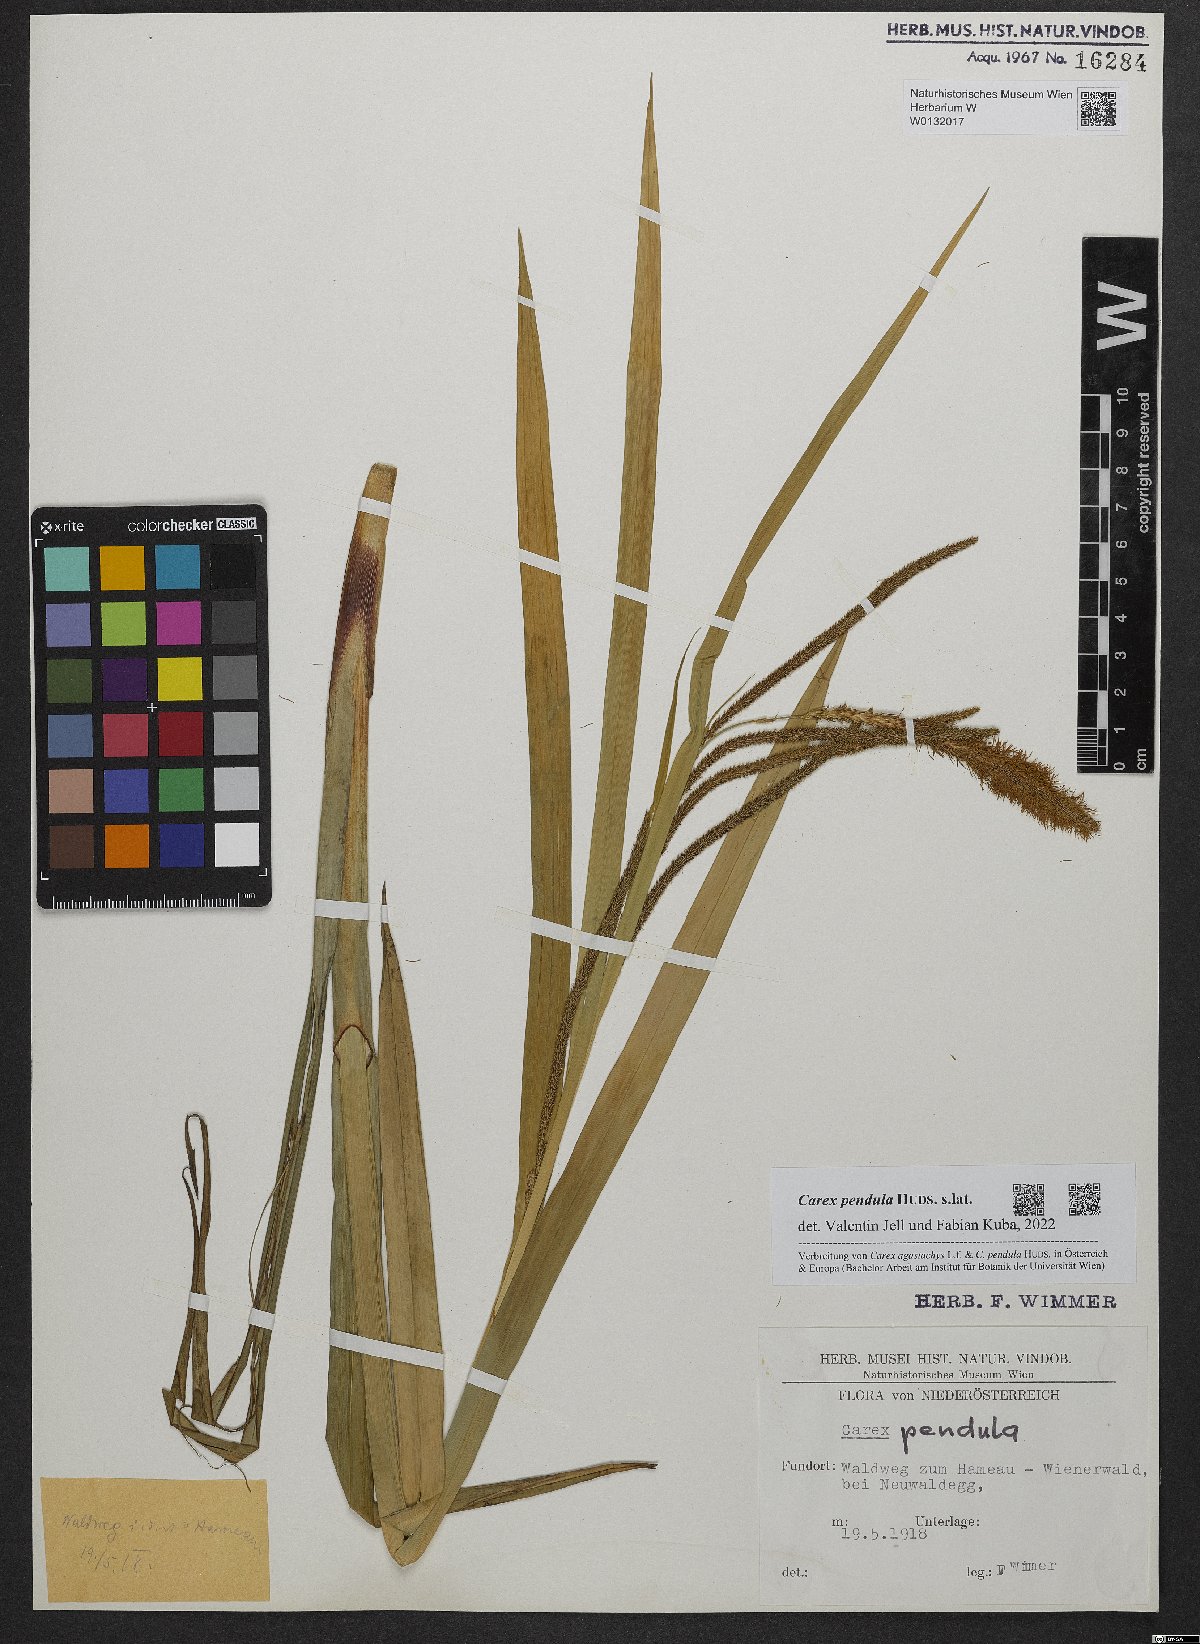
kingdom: Plantae
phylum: Tracheophyta
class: Liliopsida
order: Poales
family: Cyperaceae
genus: Carex
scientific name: Carex pendula
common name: Pendulous sedge
